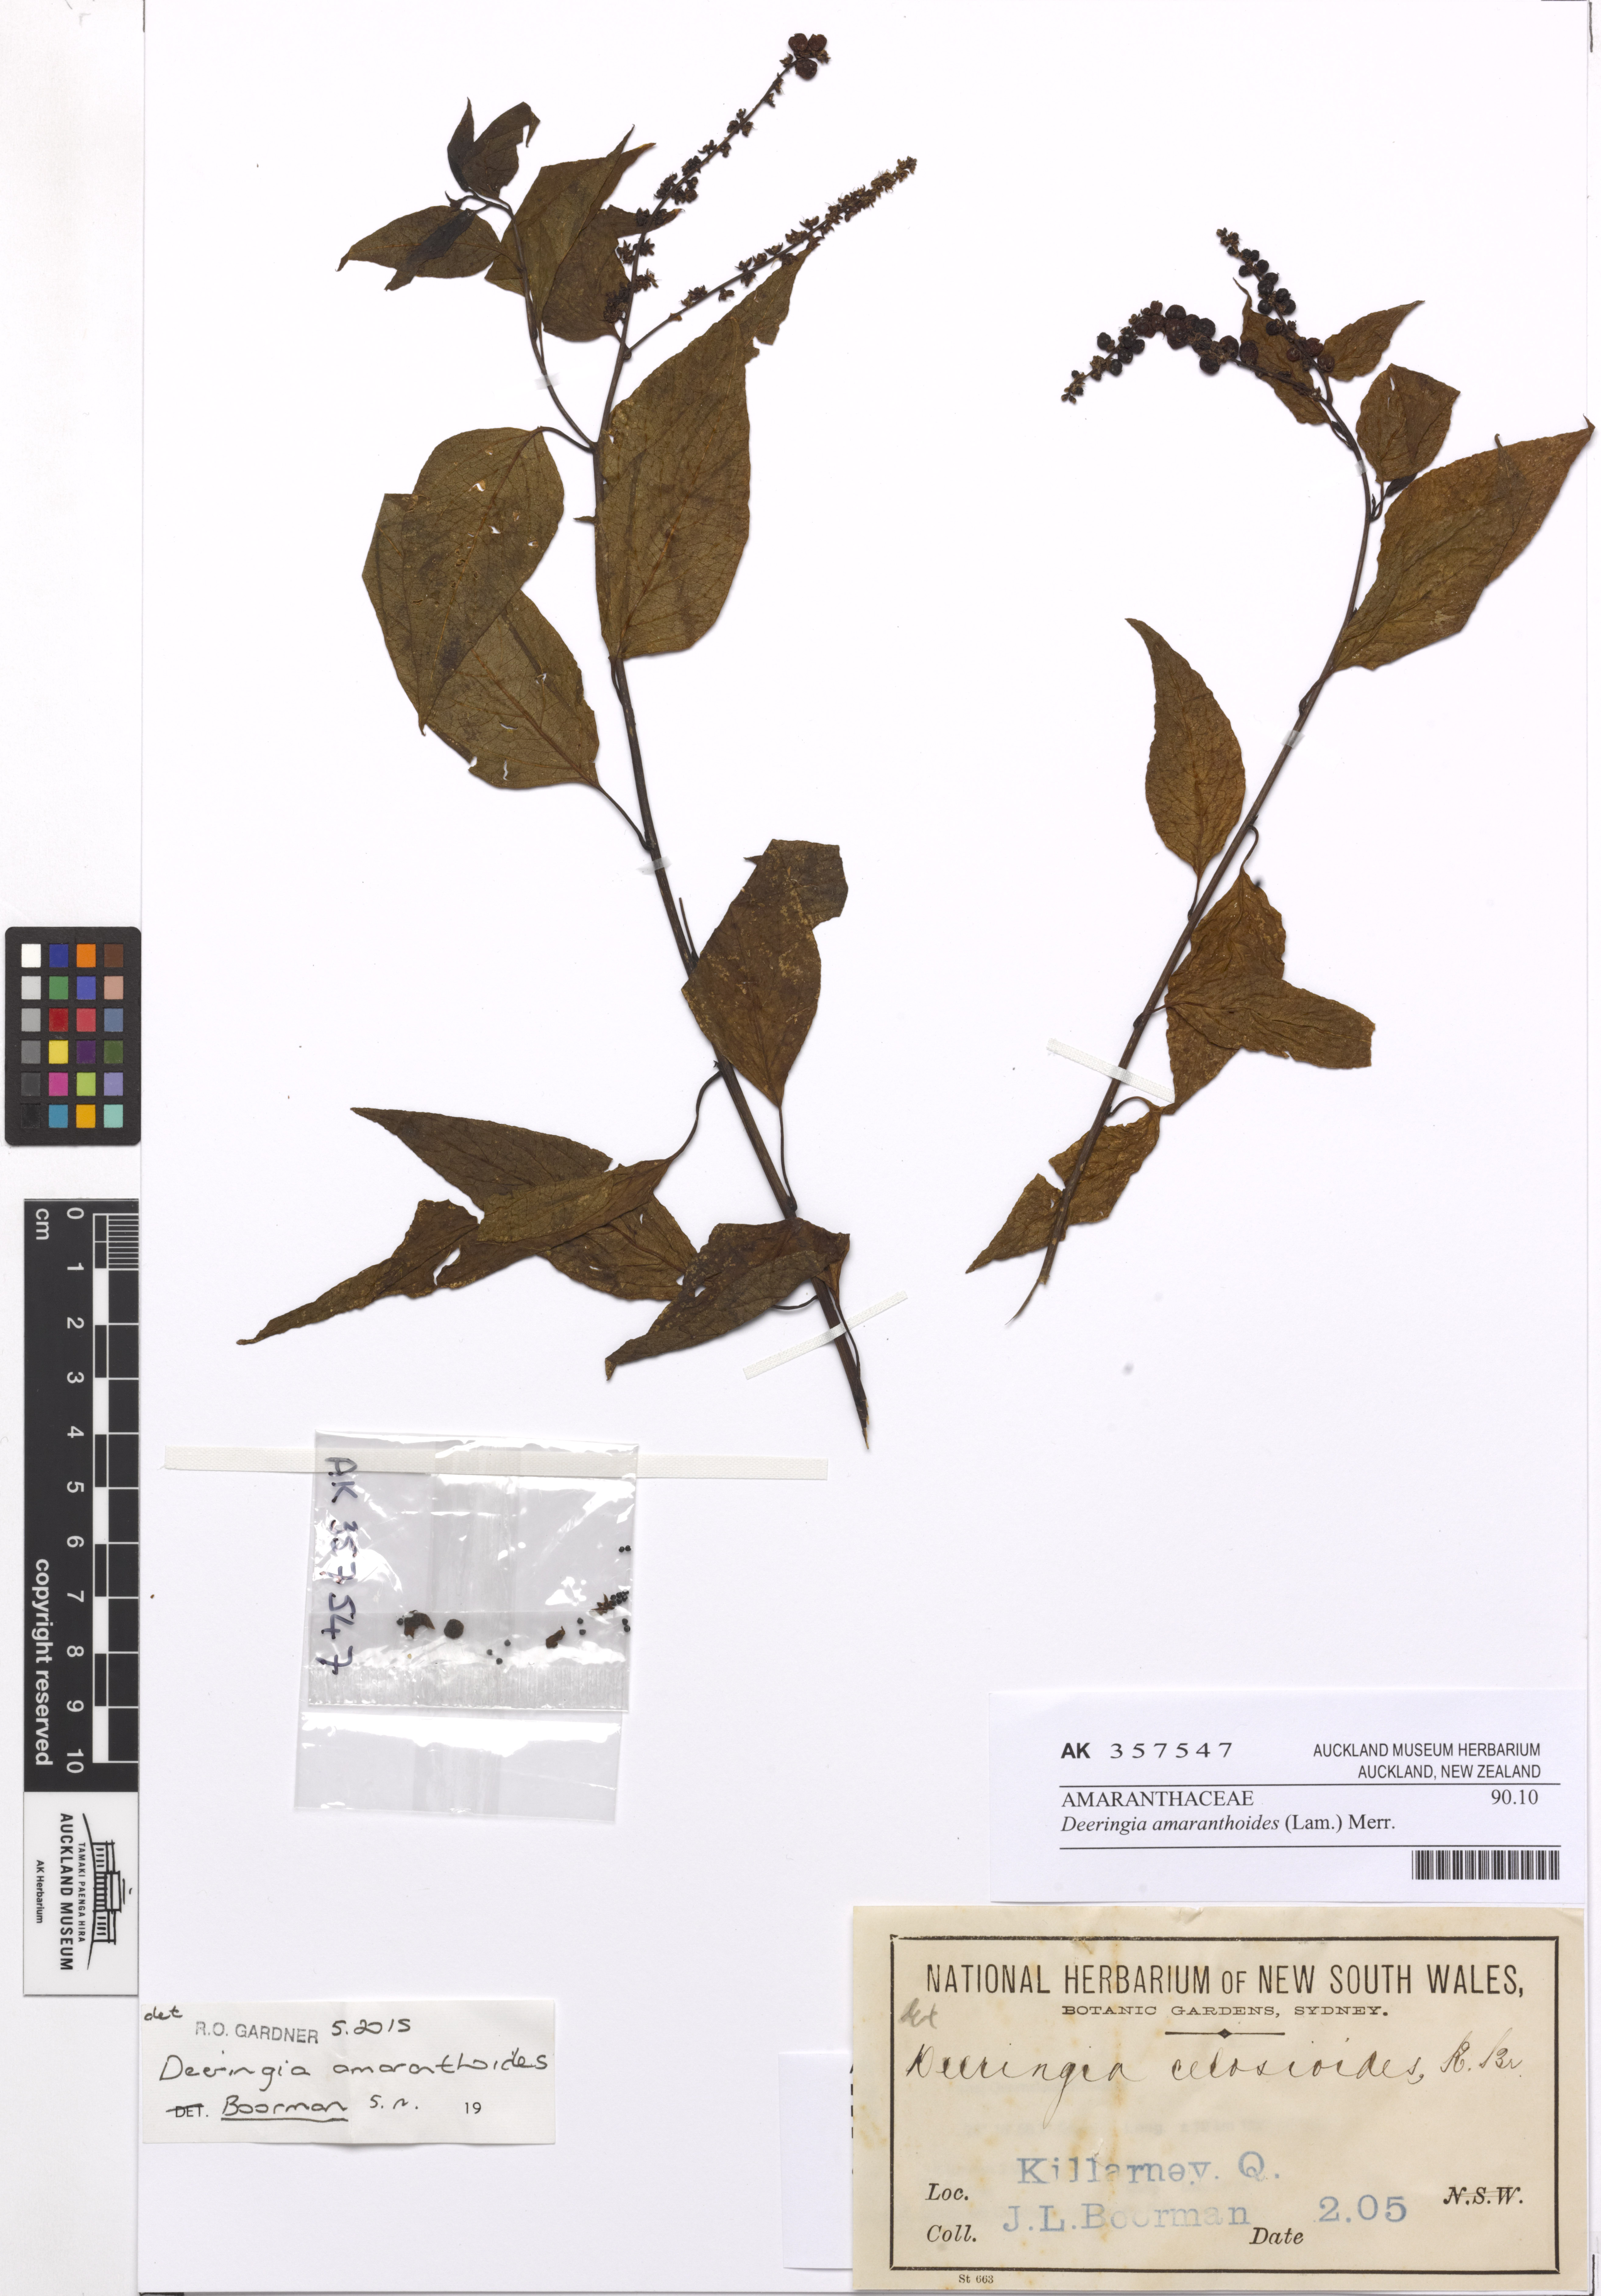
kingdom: Plantae
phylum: Tracheophyta
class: Magnoliopsida
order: Caryophyllales
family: Amaranthaceae
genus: Deeringia
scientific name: Deeringia amaranthoides
